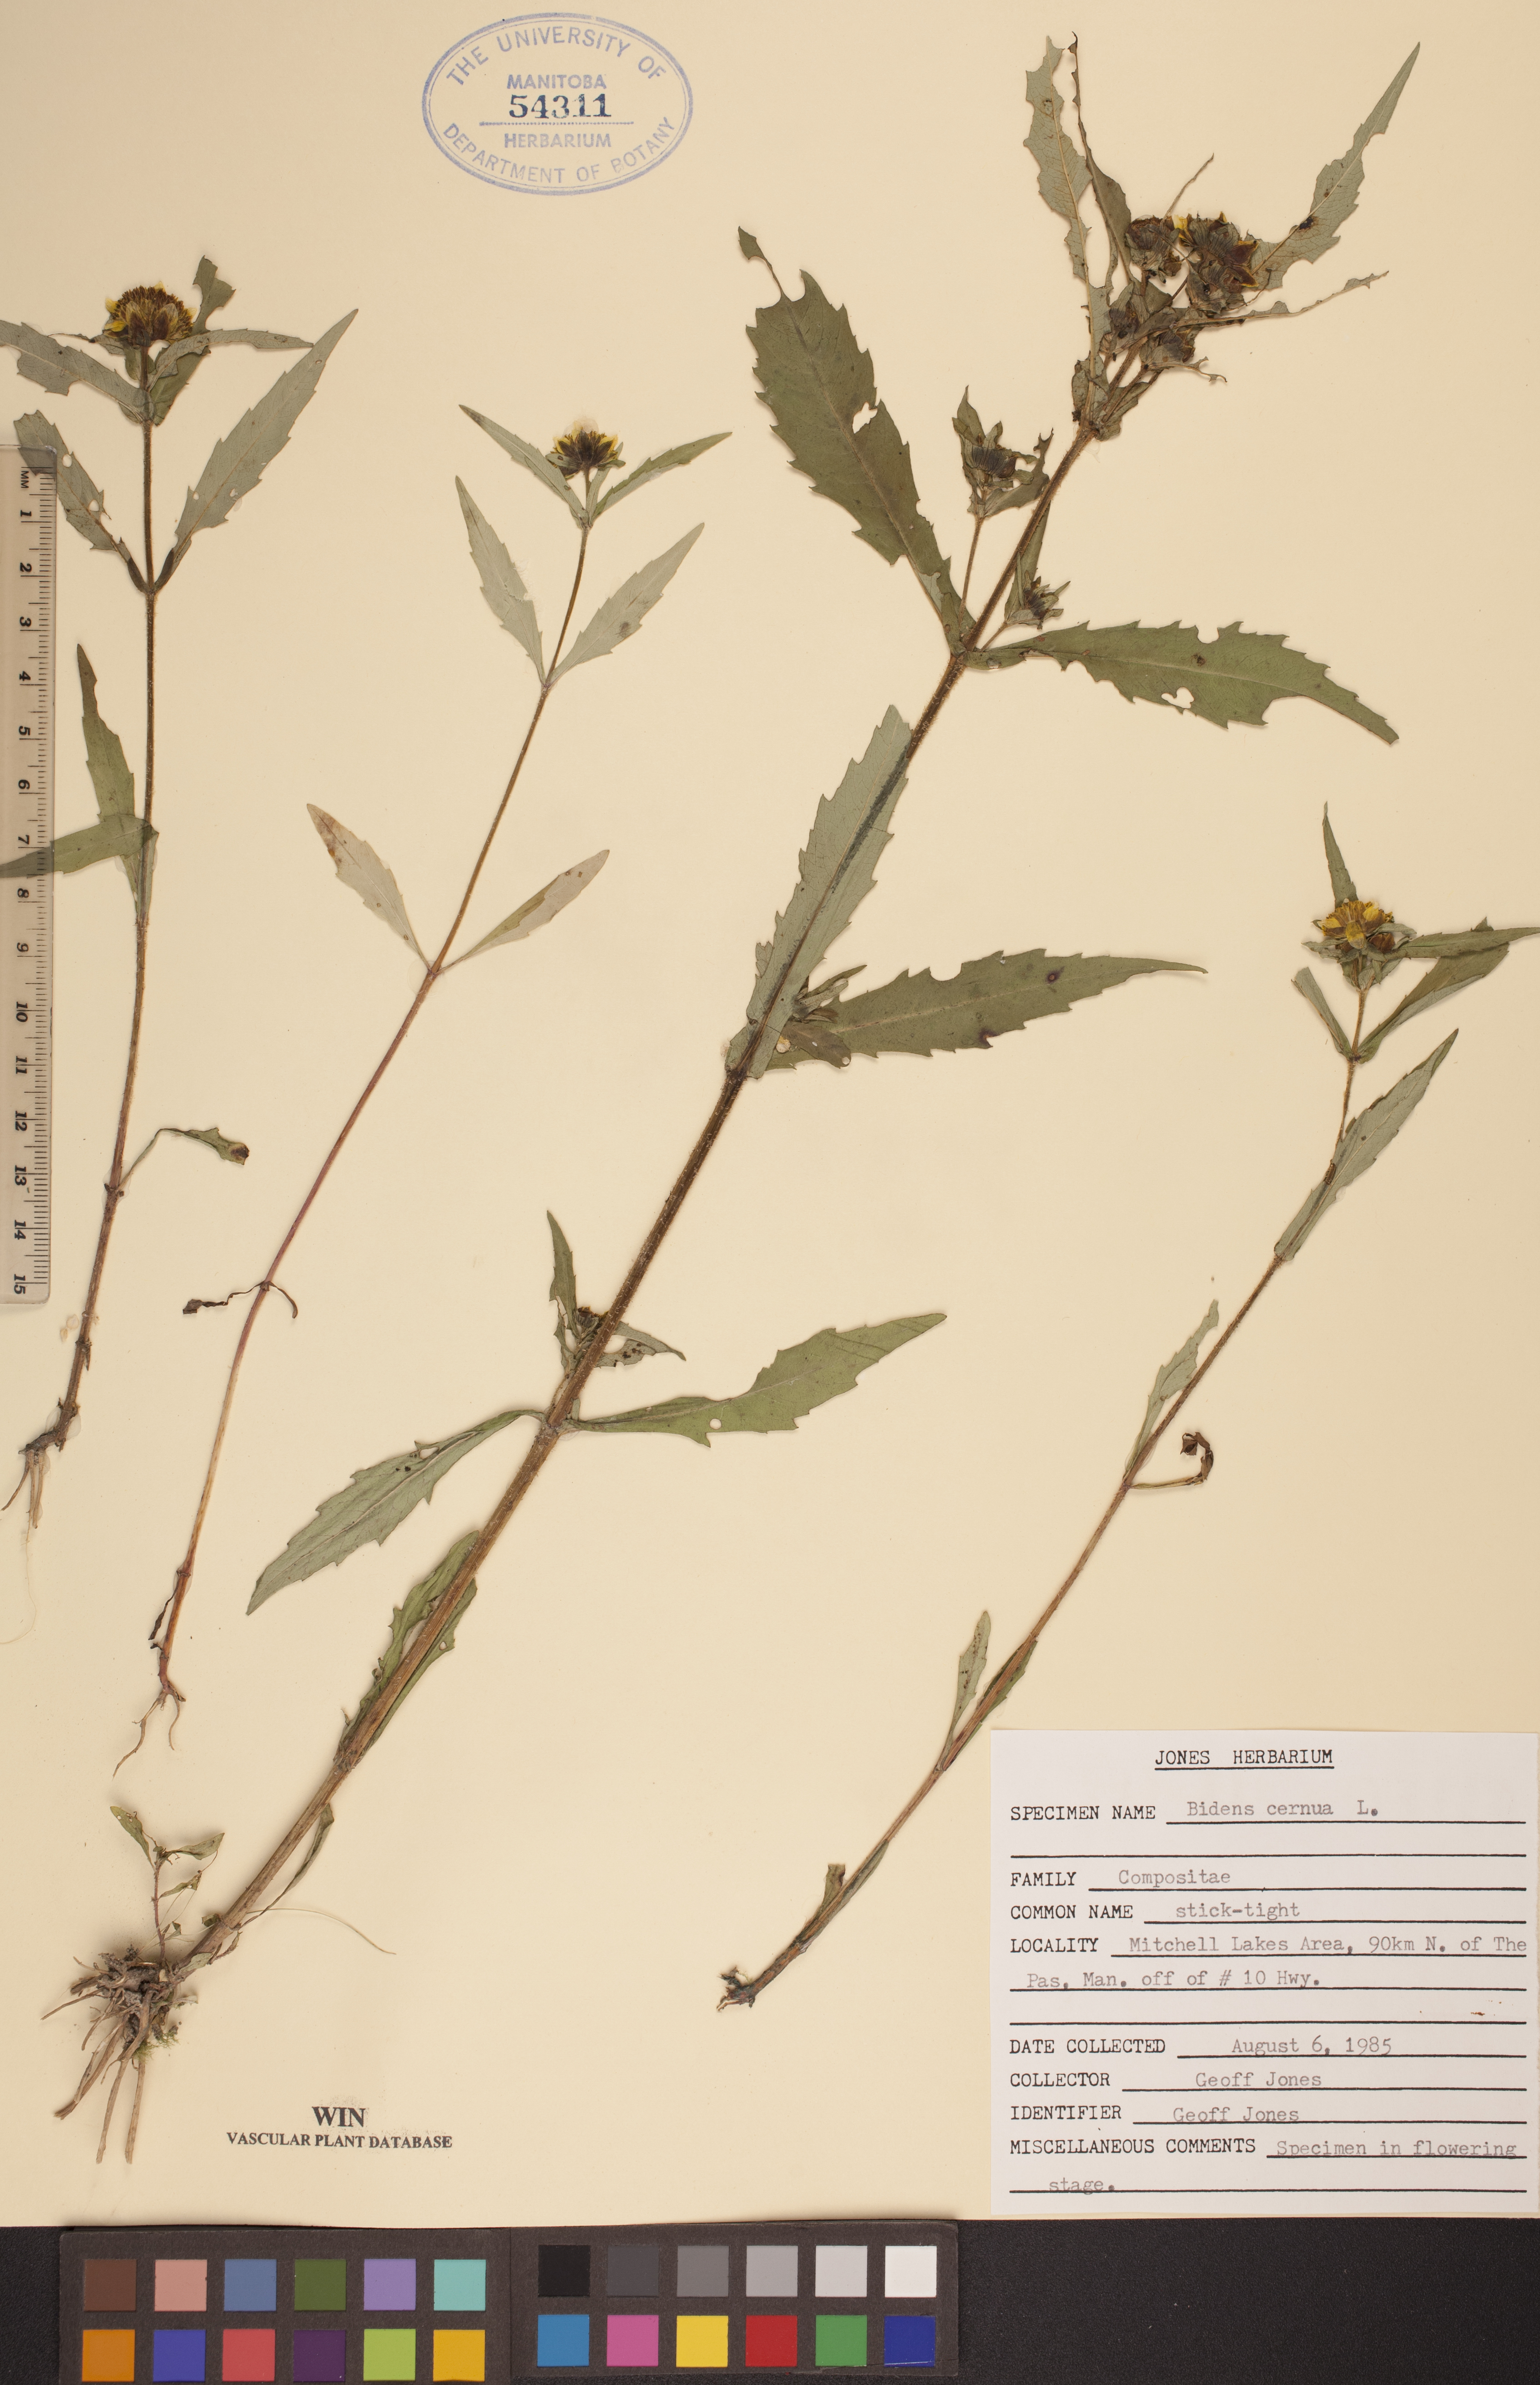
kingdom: Plantae
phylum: Tracheophyta
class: Magnoliopsida
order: Asterales
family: Asteraceae
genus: Bidens
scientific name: Bidens cernua
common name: Nodding bur-marigold
